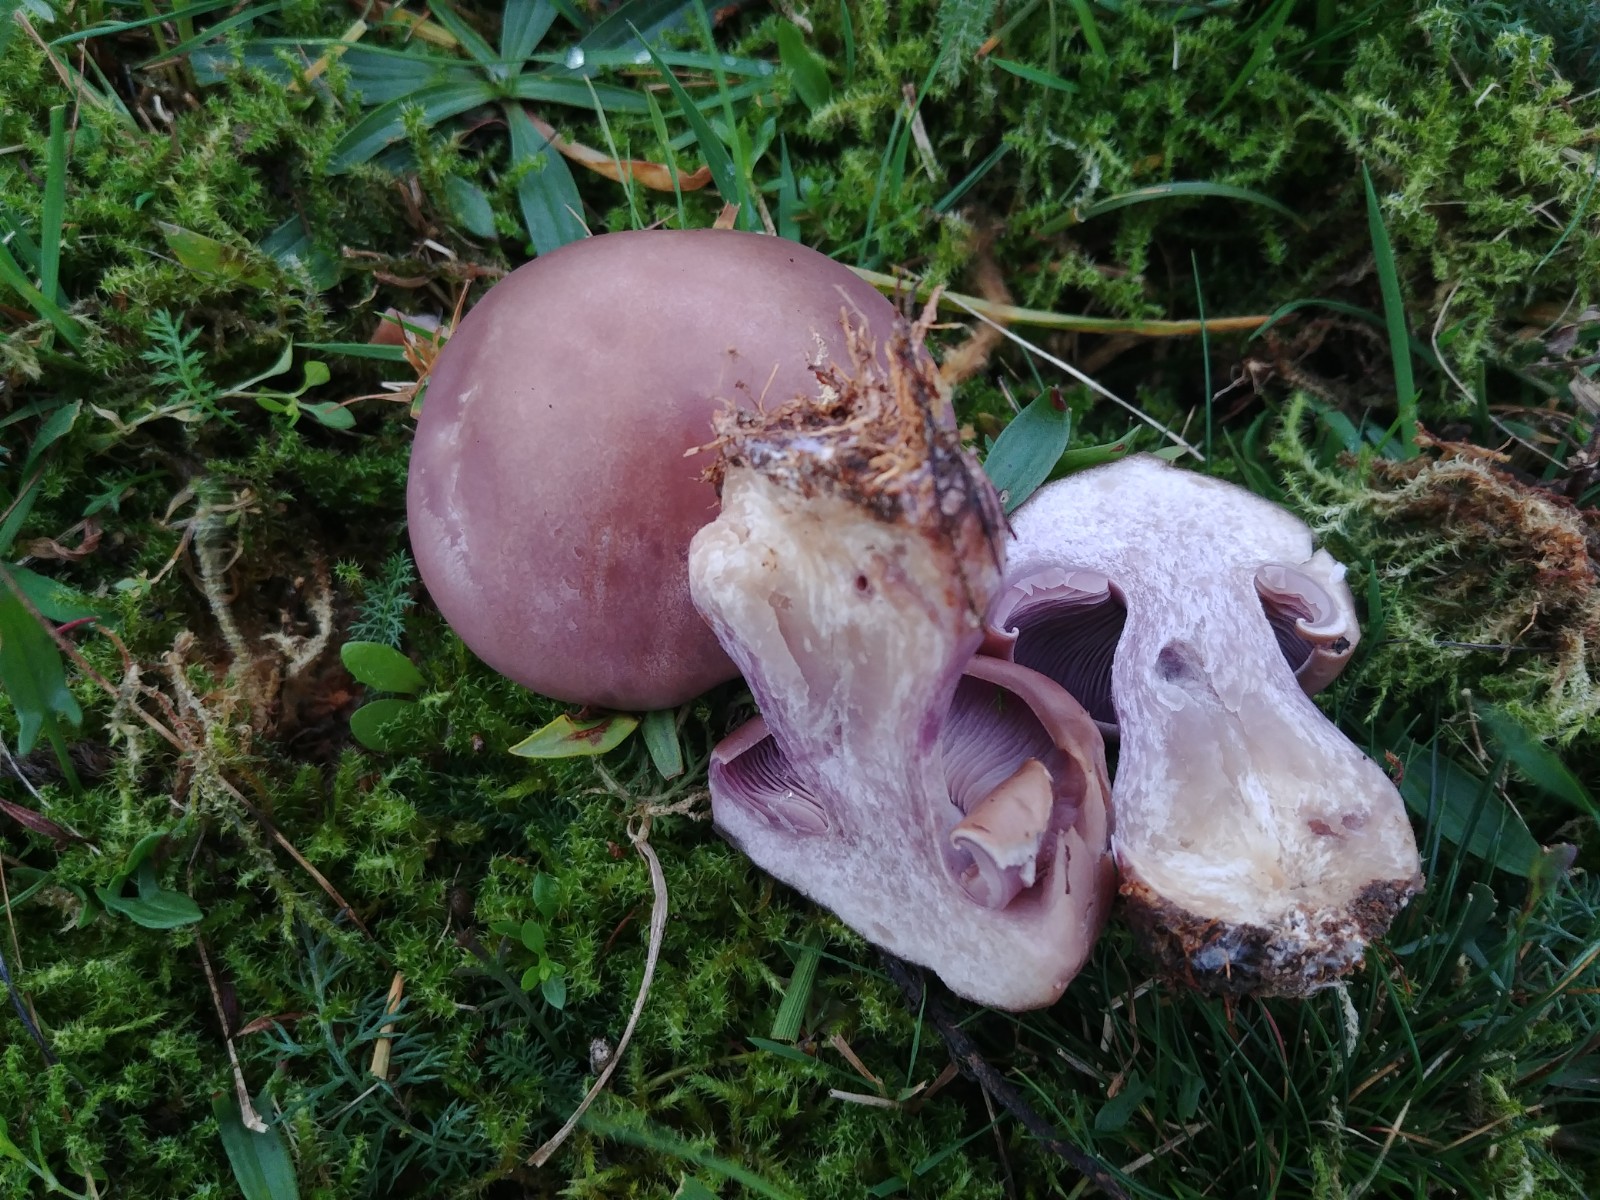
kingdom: Fungi
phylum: Basidiomycota
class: Agaricomycetes
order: Agaricales
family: Tricholomataceae
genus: Lepista
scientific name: Lepista nuda
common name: violet hekseringshat
